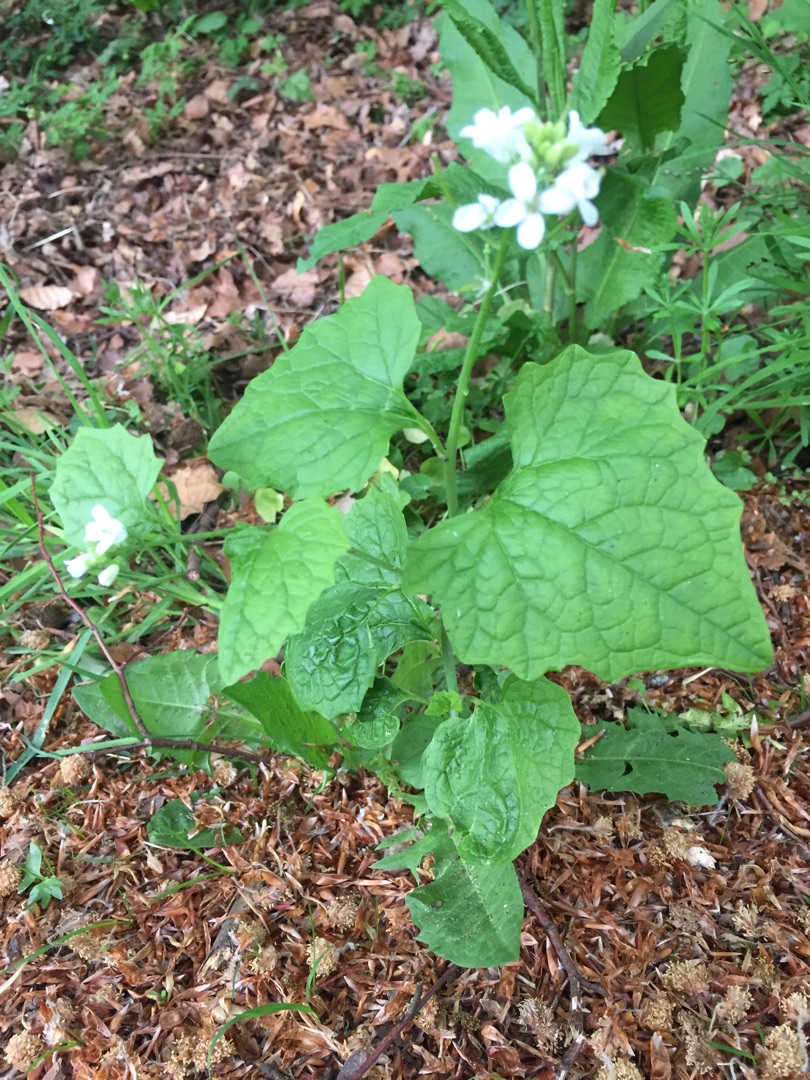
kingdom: Plantae
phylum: Tracheophyta
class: Magnoliopsida
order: Brassicales
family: Brassicaceae
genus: Alliaria
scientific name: Alliaria petiolata
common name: Løgkarse
